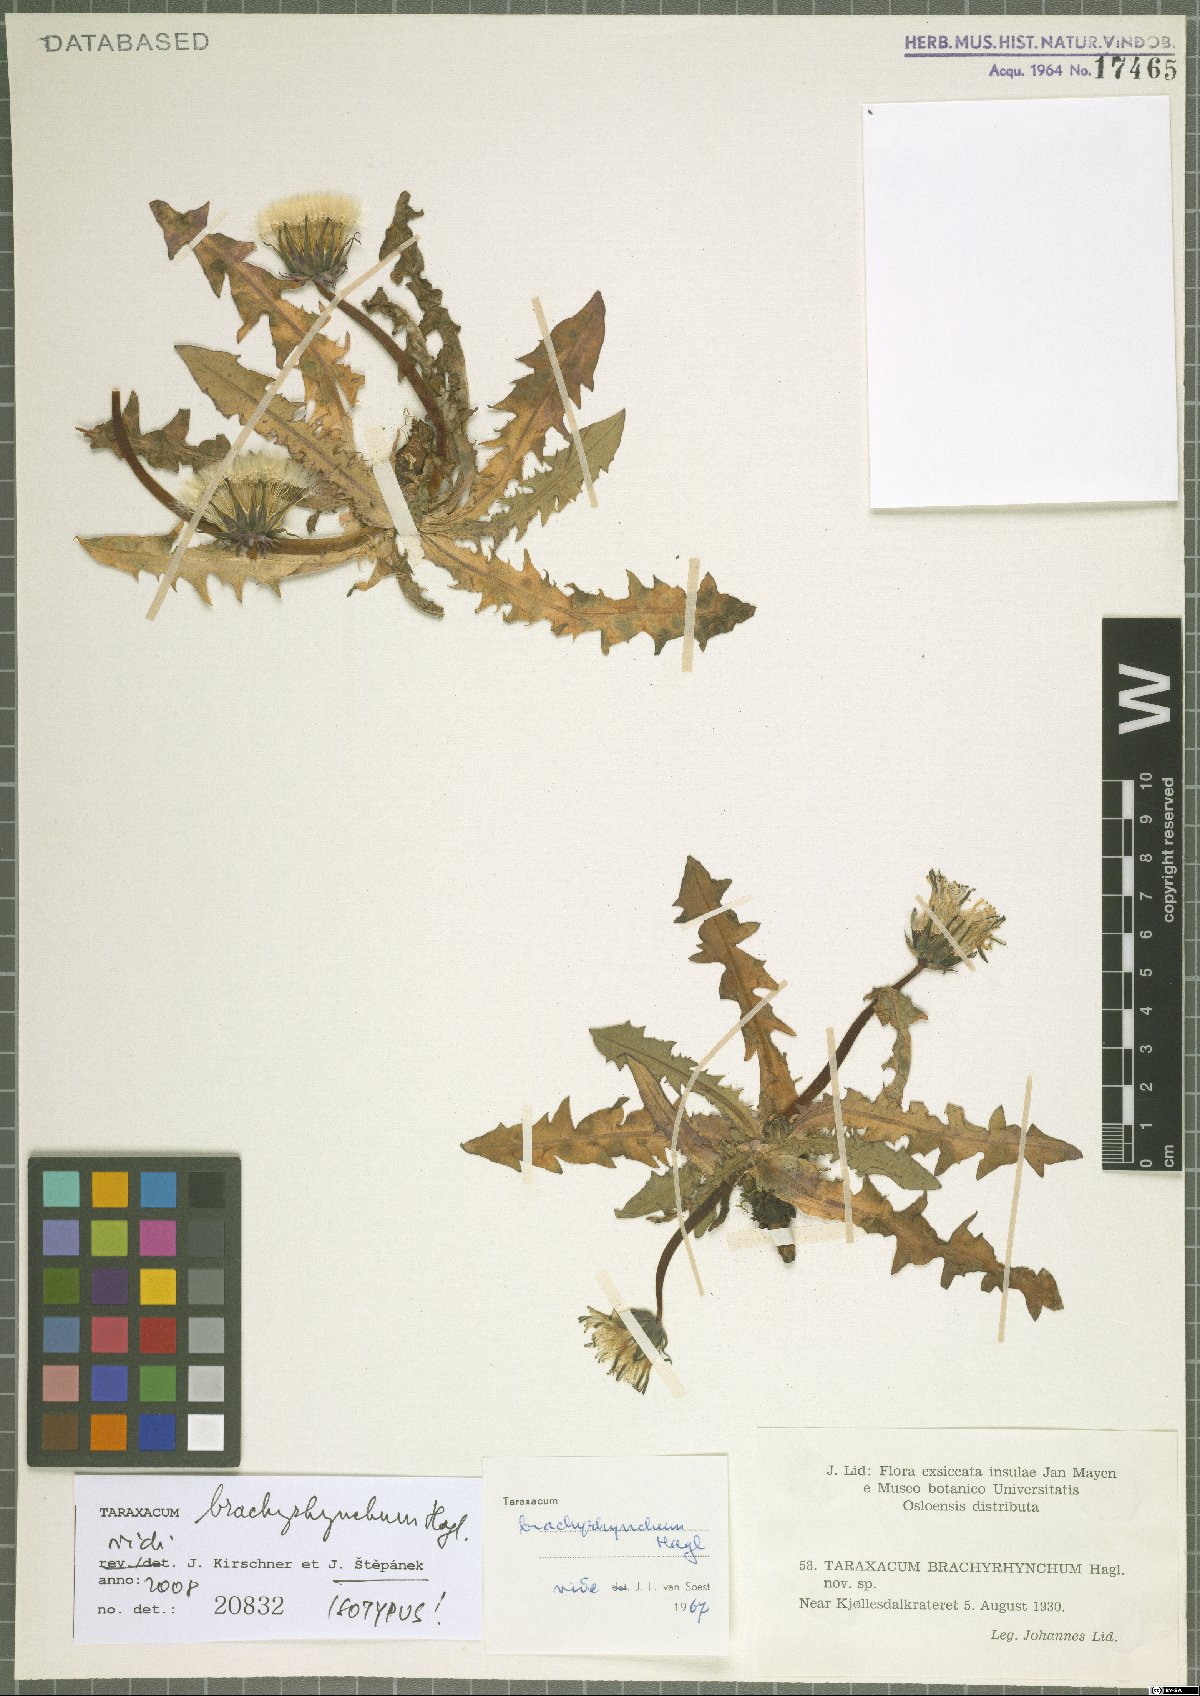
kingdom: Plantae
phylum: Tracheophyta
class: Magnoliopsida
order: Asterales
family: Asteraceae
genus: Taraxacum
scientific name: Taraxacum brachyrhynchum
